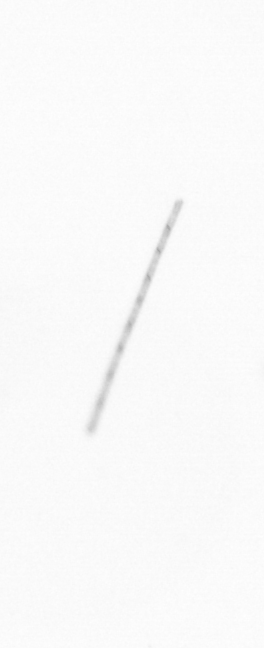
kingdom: Chromista
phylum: Ochrophyta
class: Bacillariophyceae
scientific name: Bacillariophyceae
